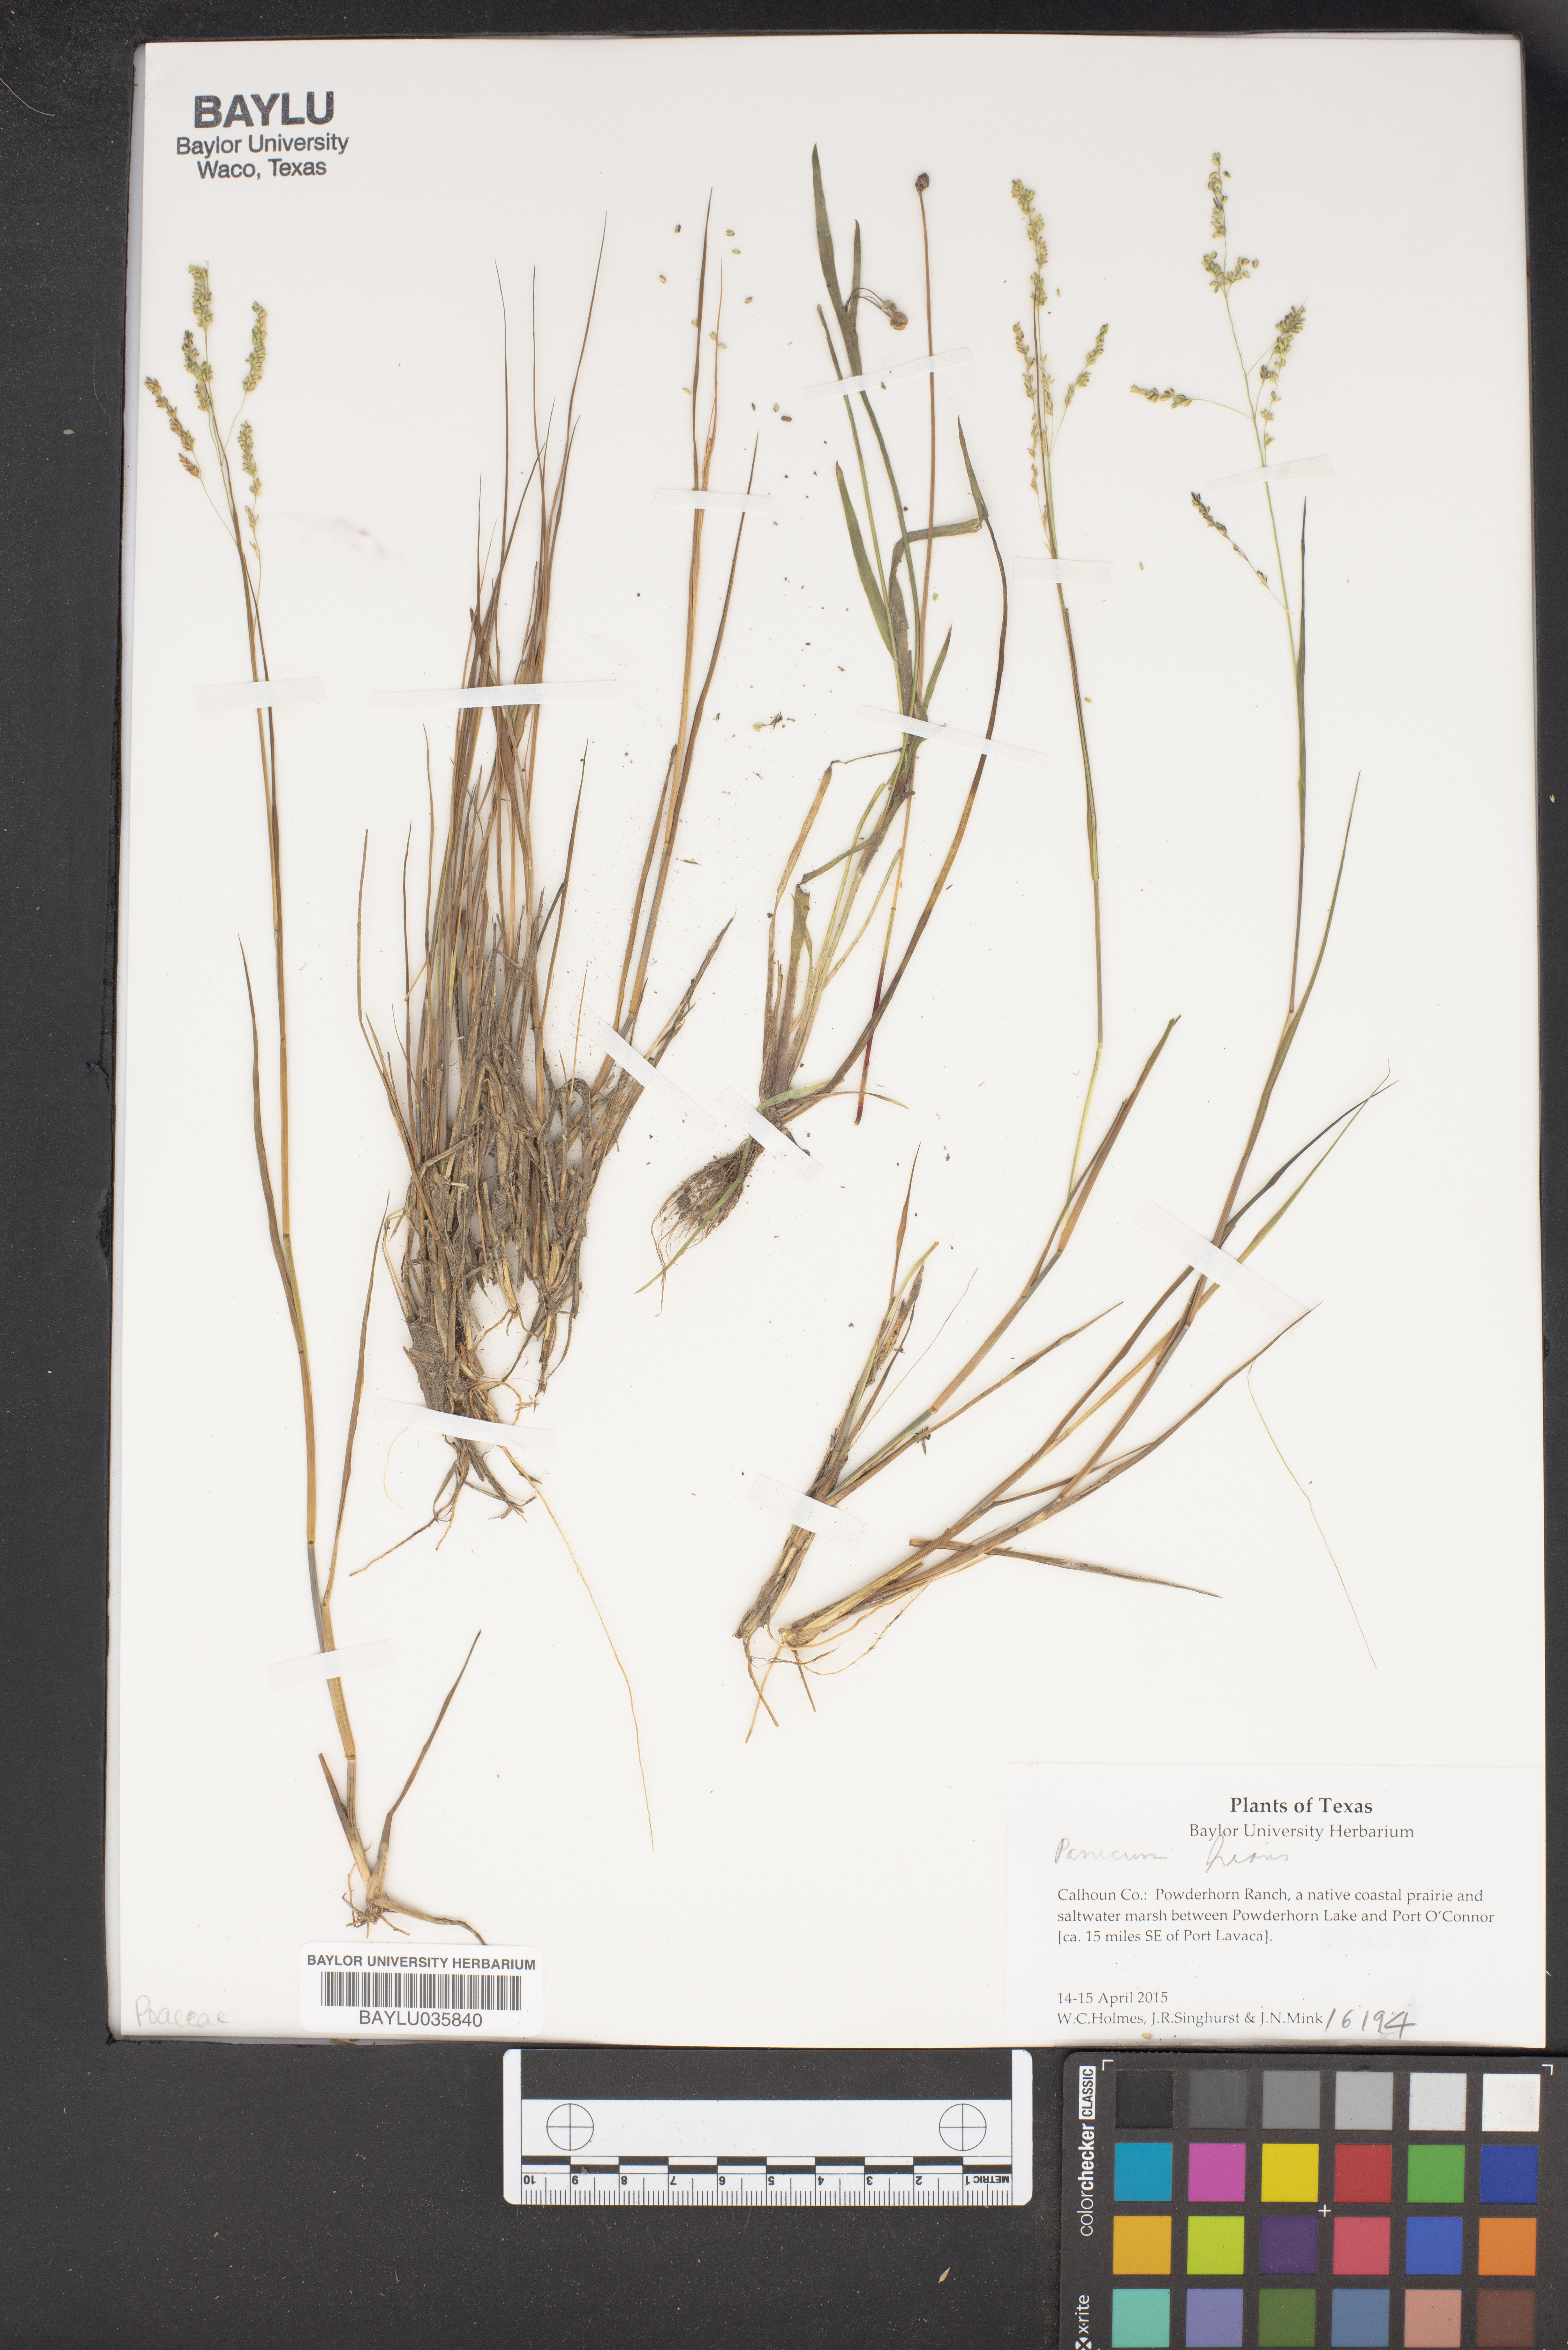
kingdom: Plantae
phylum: Tracheophyta
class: Liliopsida
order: Poales
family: Poaceae
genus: Coleataenia
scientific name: Coleataenia stenodes
